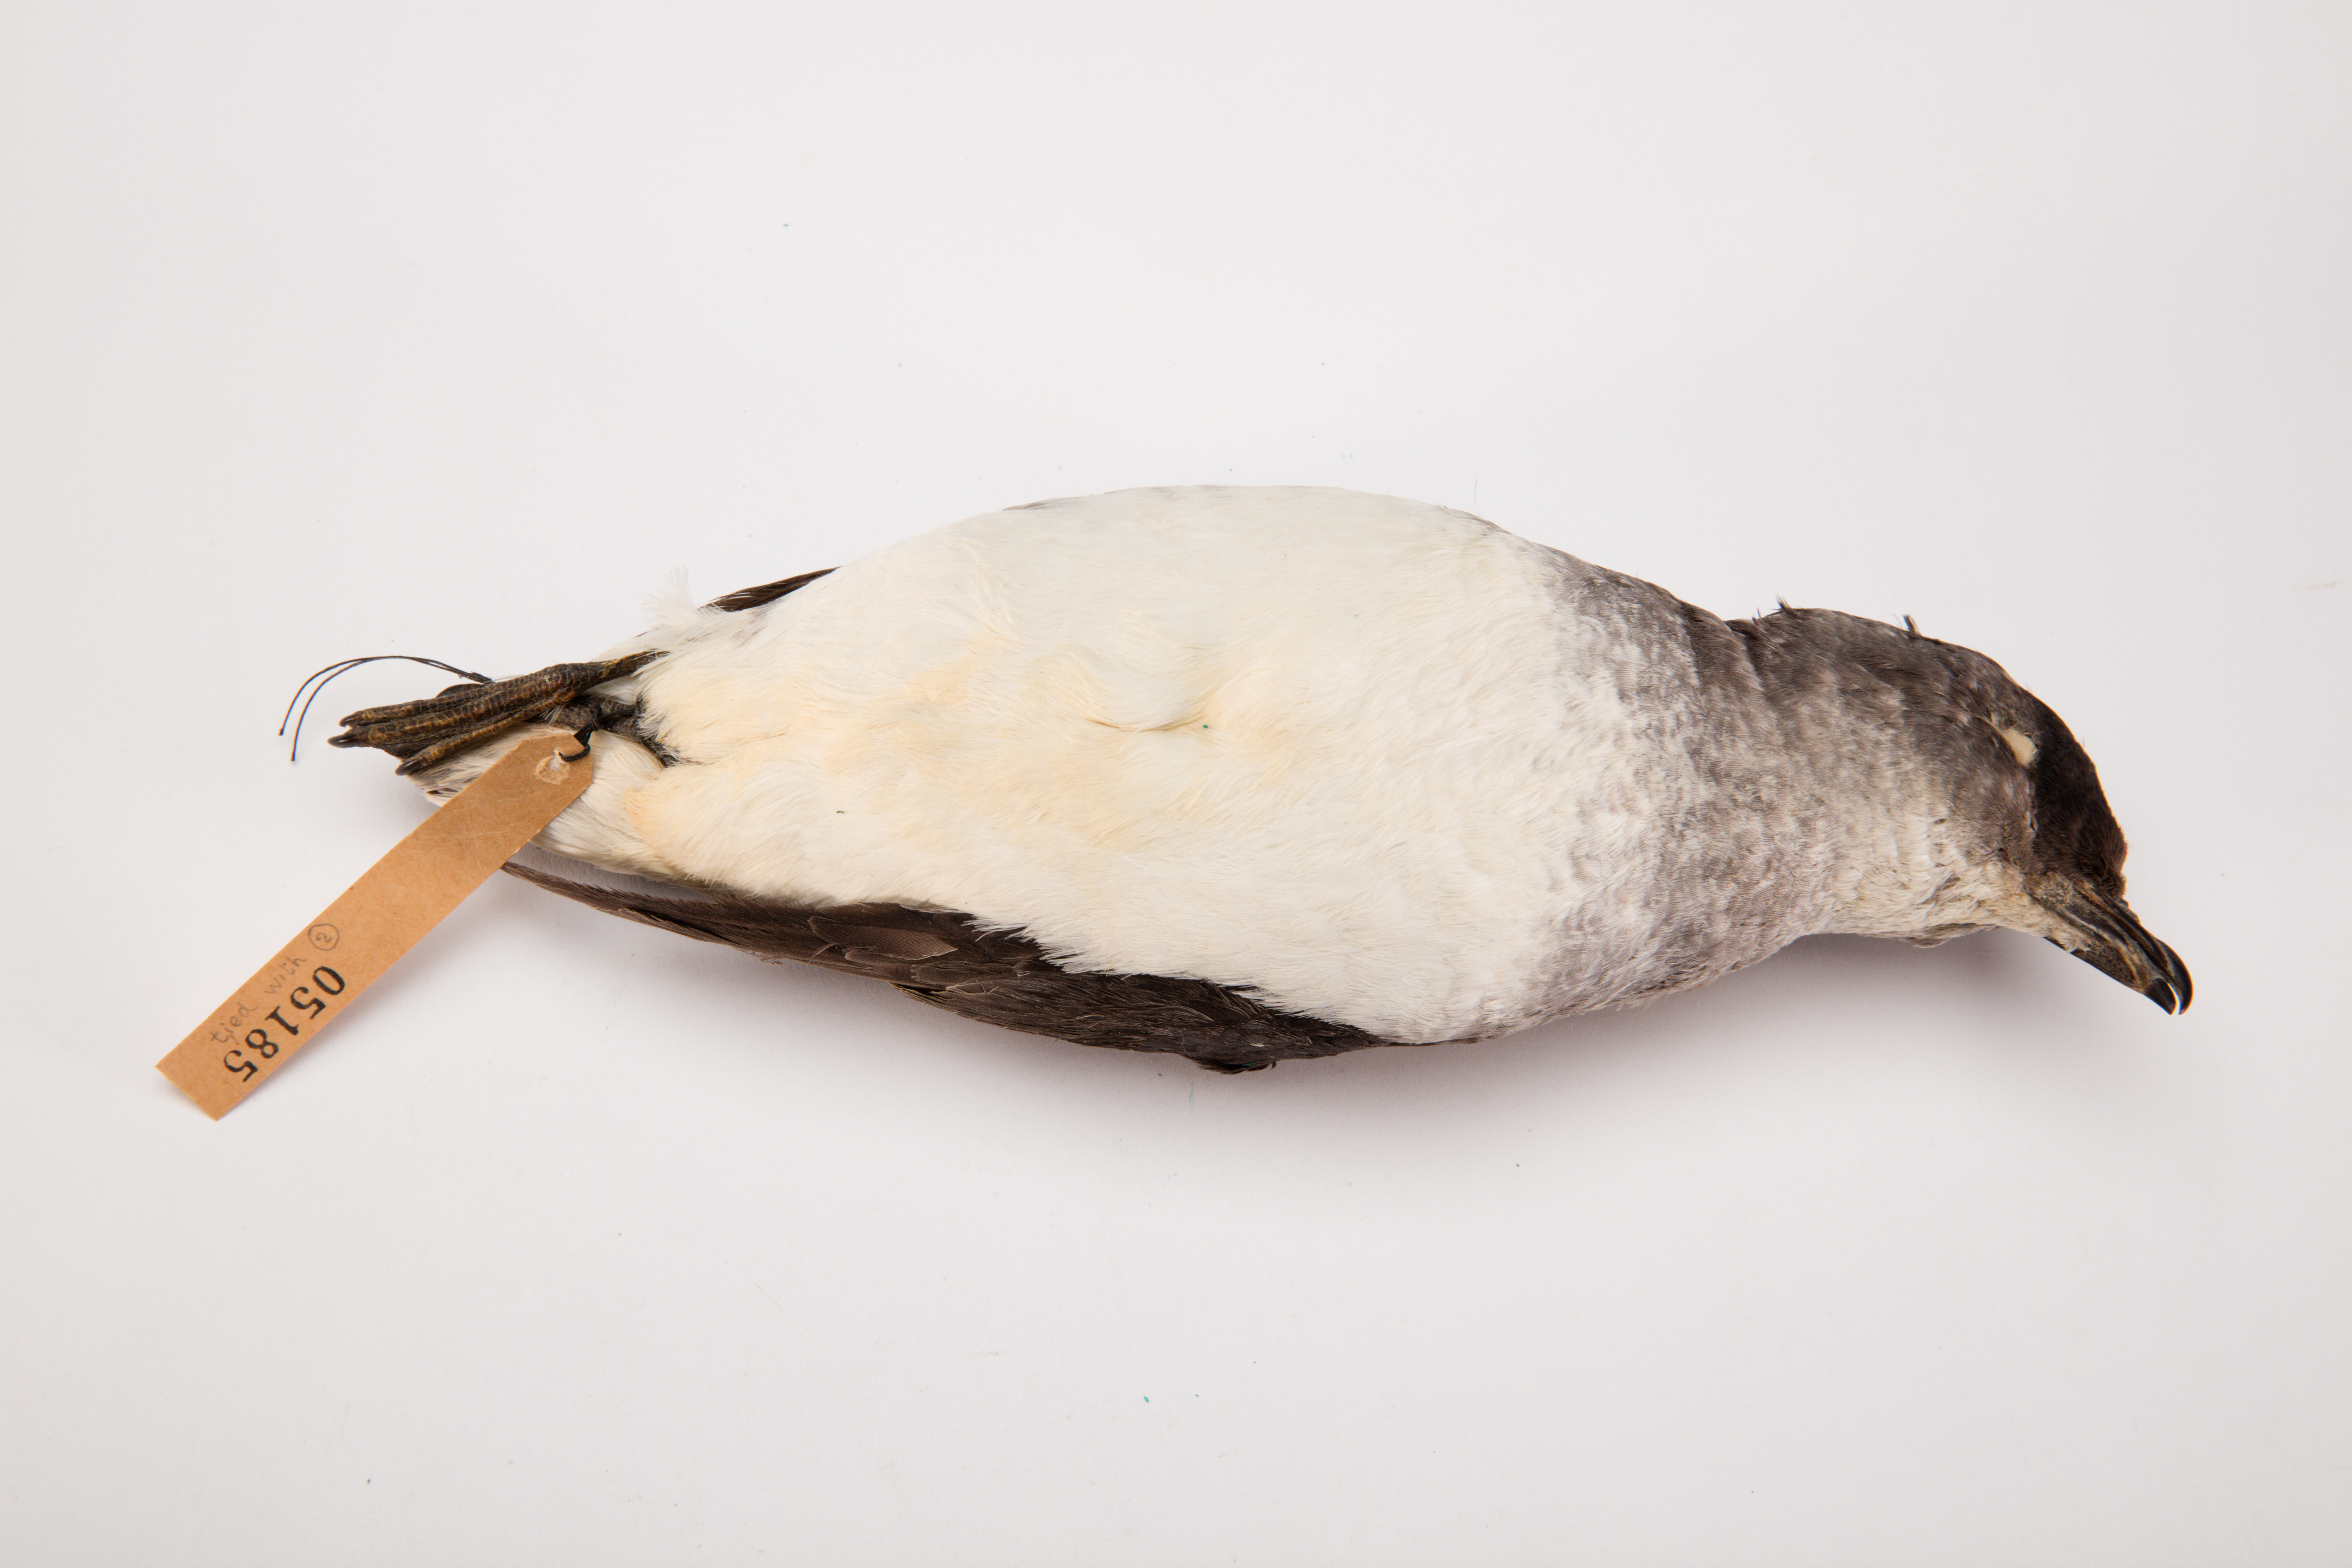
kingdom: Animalia
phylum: Chordata
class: Aves
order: Procellariiformes
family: Pelecanoididae
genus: Pelecanoides
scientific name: Pelecanoides urinatrix
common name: Common diving-petrel
